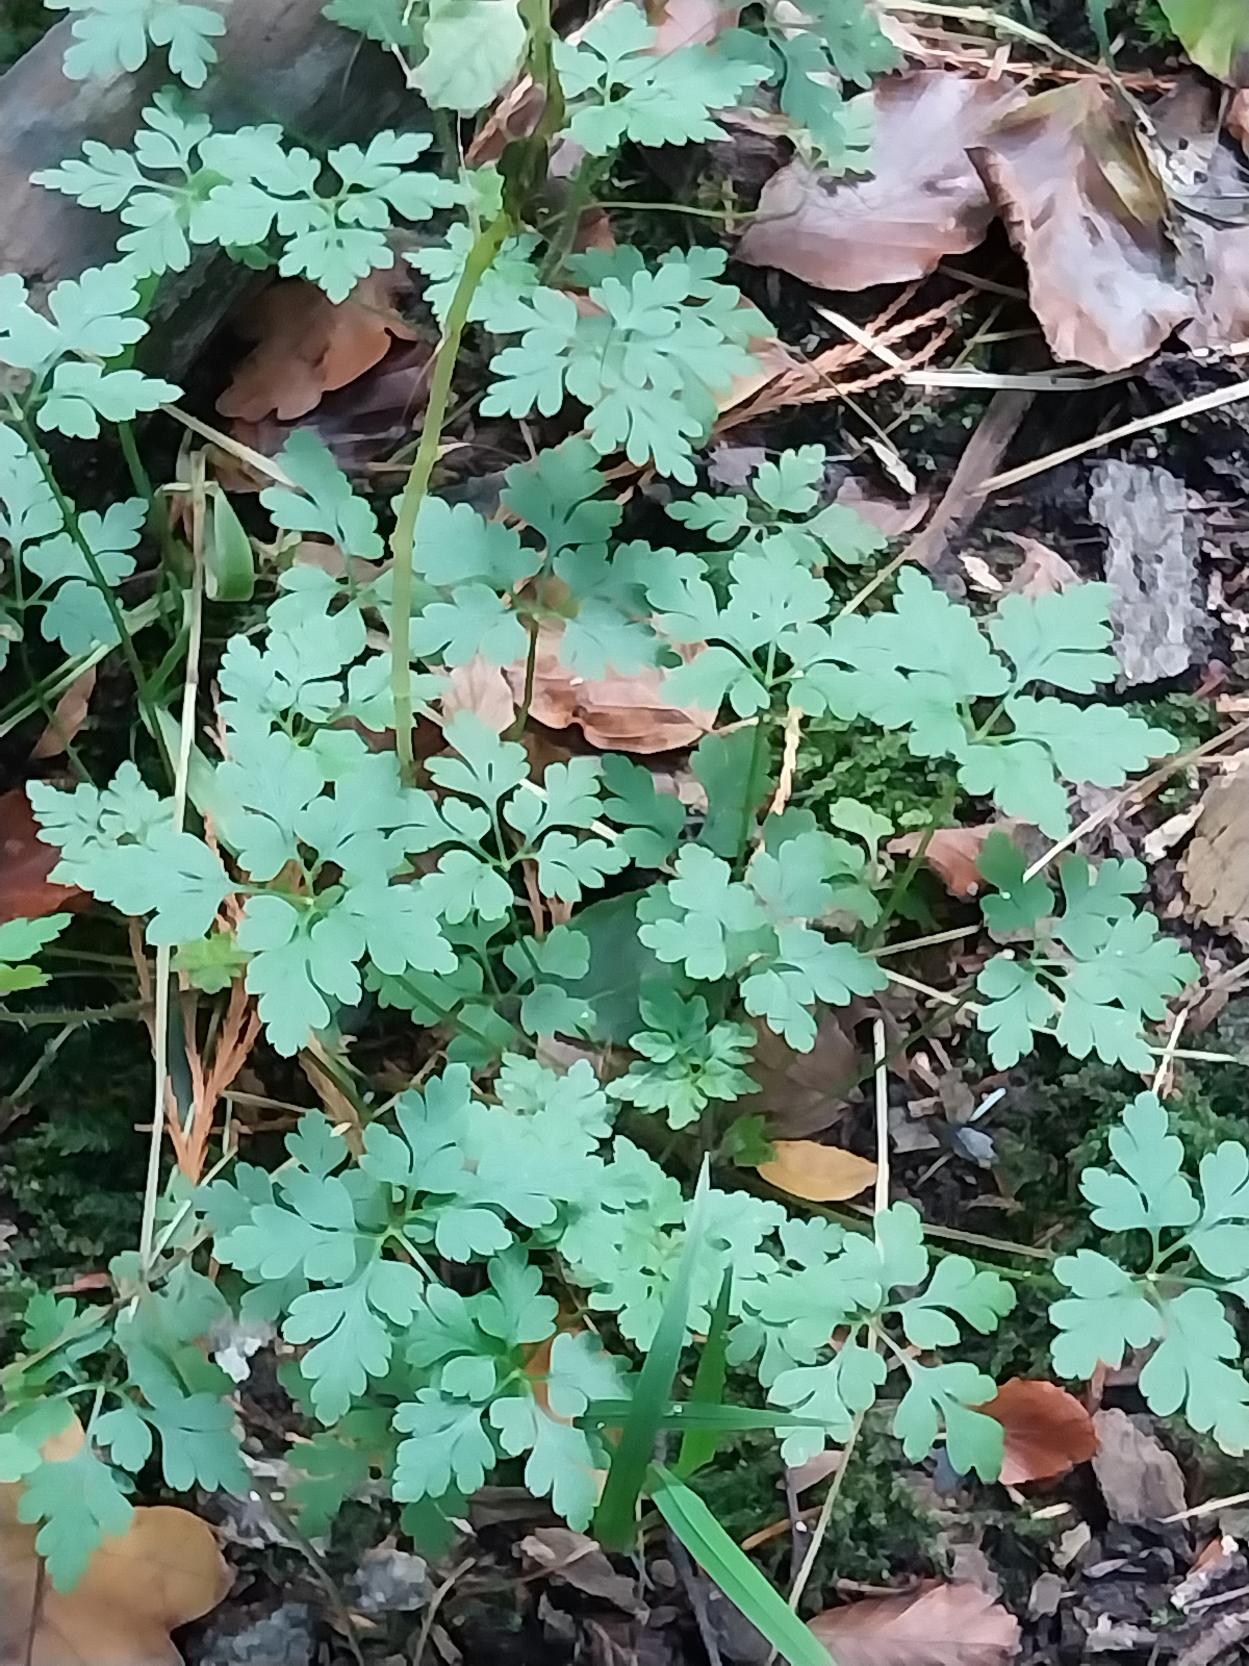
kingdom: Plantae
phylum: Tracheophyta
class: Magnoliopsida
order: Geraniales
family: Geraniaceae
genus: Geranium
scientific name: Geranium robertianum
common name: Stinkende storkenæb
